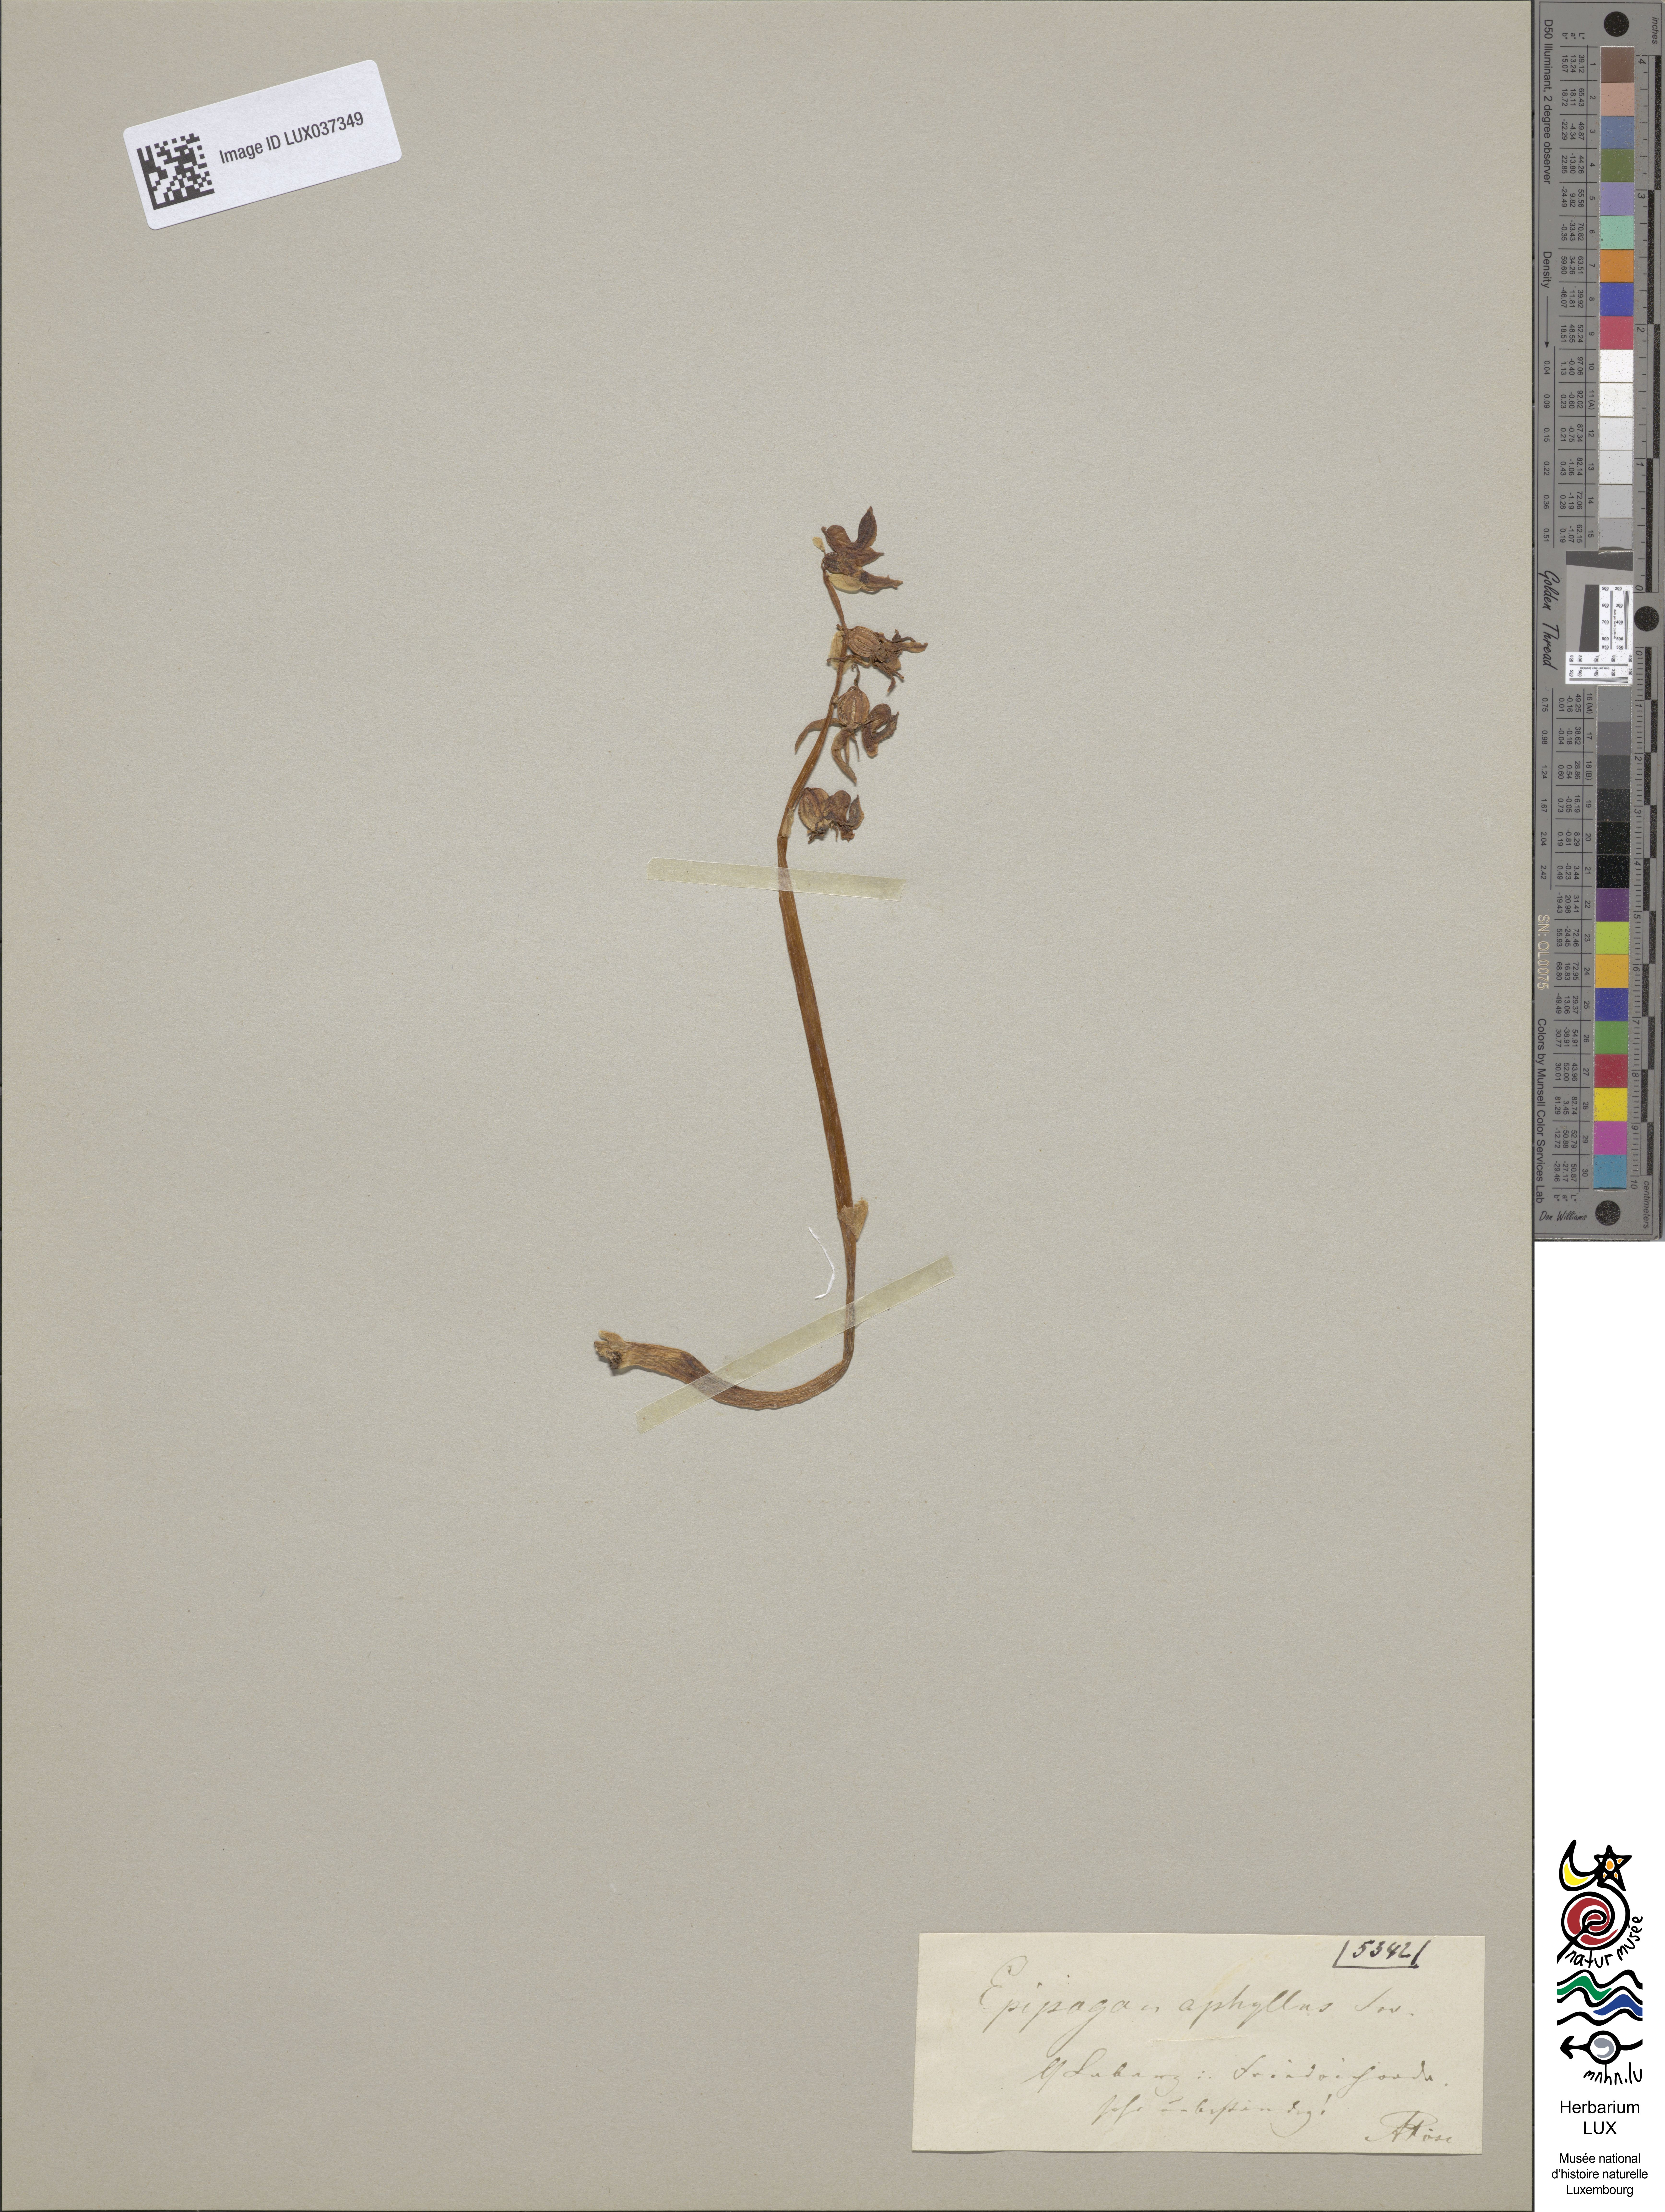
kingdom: Plantae
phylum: Tracheophyta
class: Liliopsida
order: Asparagales
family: Orchidaceae
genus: Epipogium
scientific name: Epipogium aphyllum
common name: Ghost orchid
